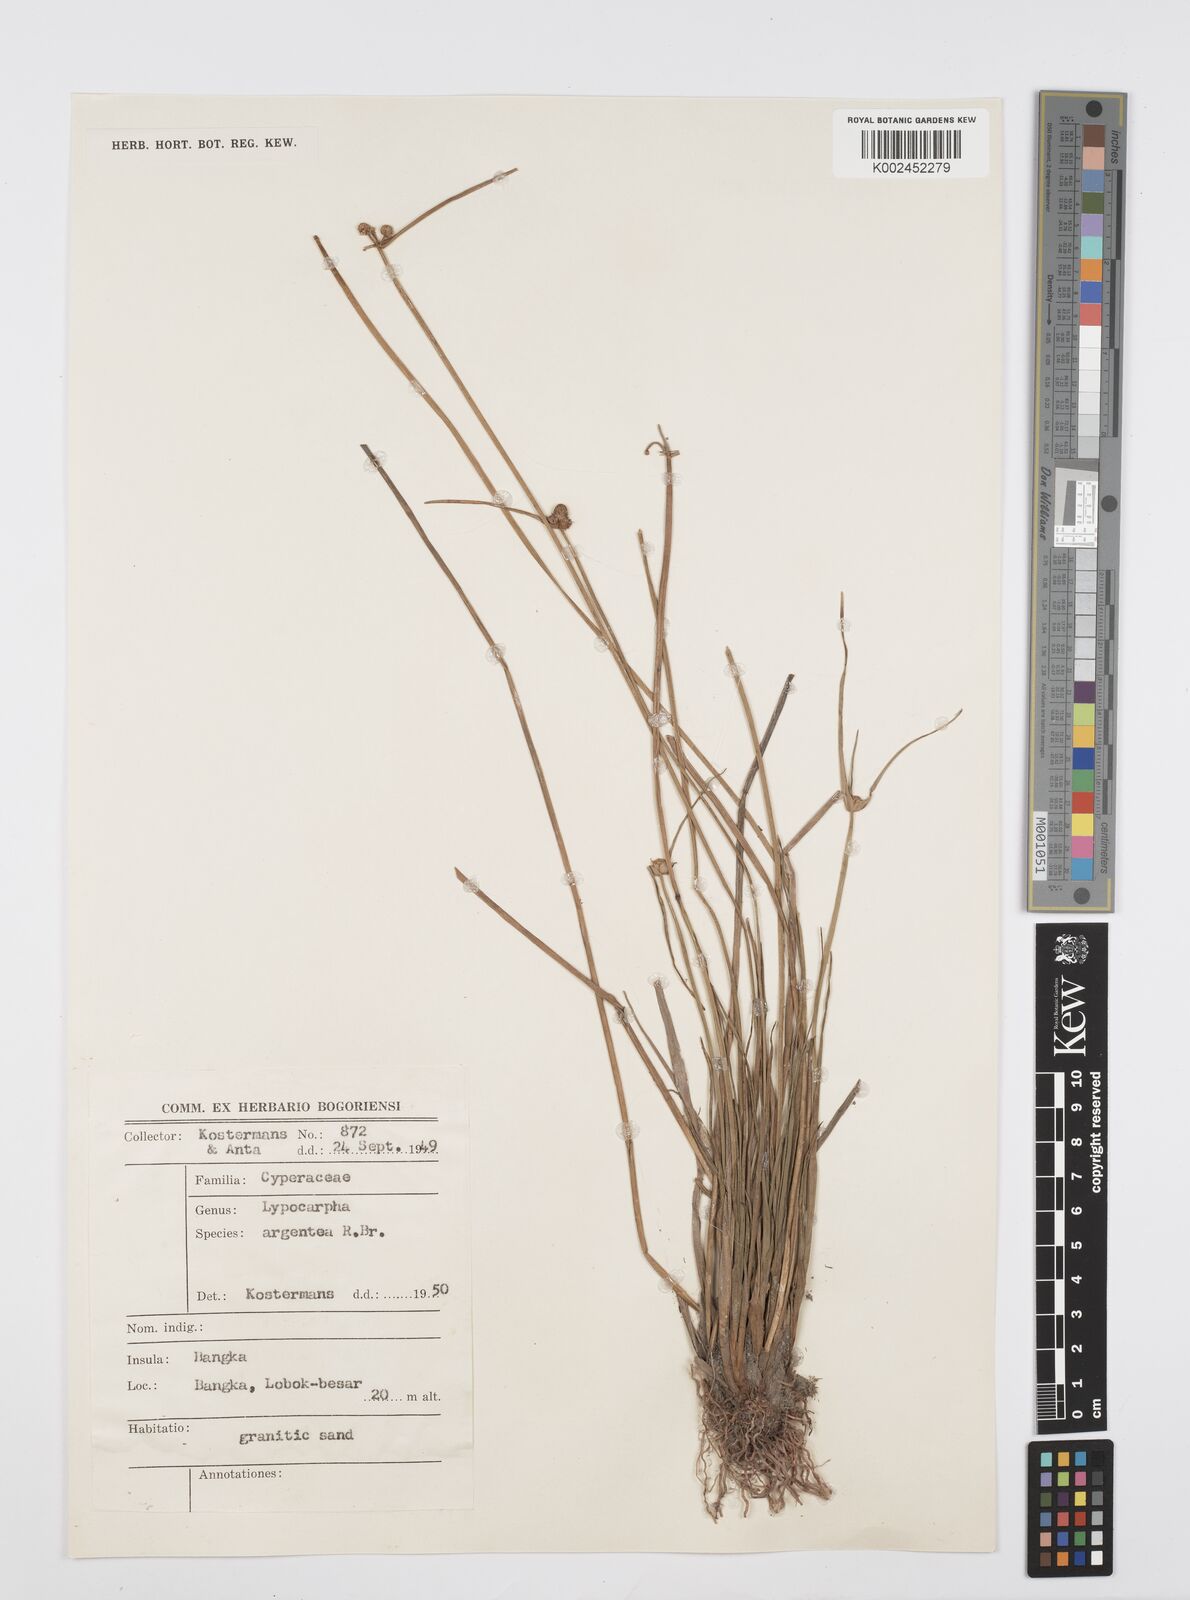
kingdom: Plantae
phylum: Tracheophyta
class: Liliopsida
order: Poales
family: Cyperaceae
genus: Cyperus
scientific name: Cyperus
